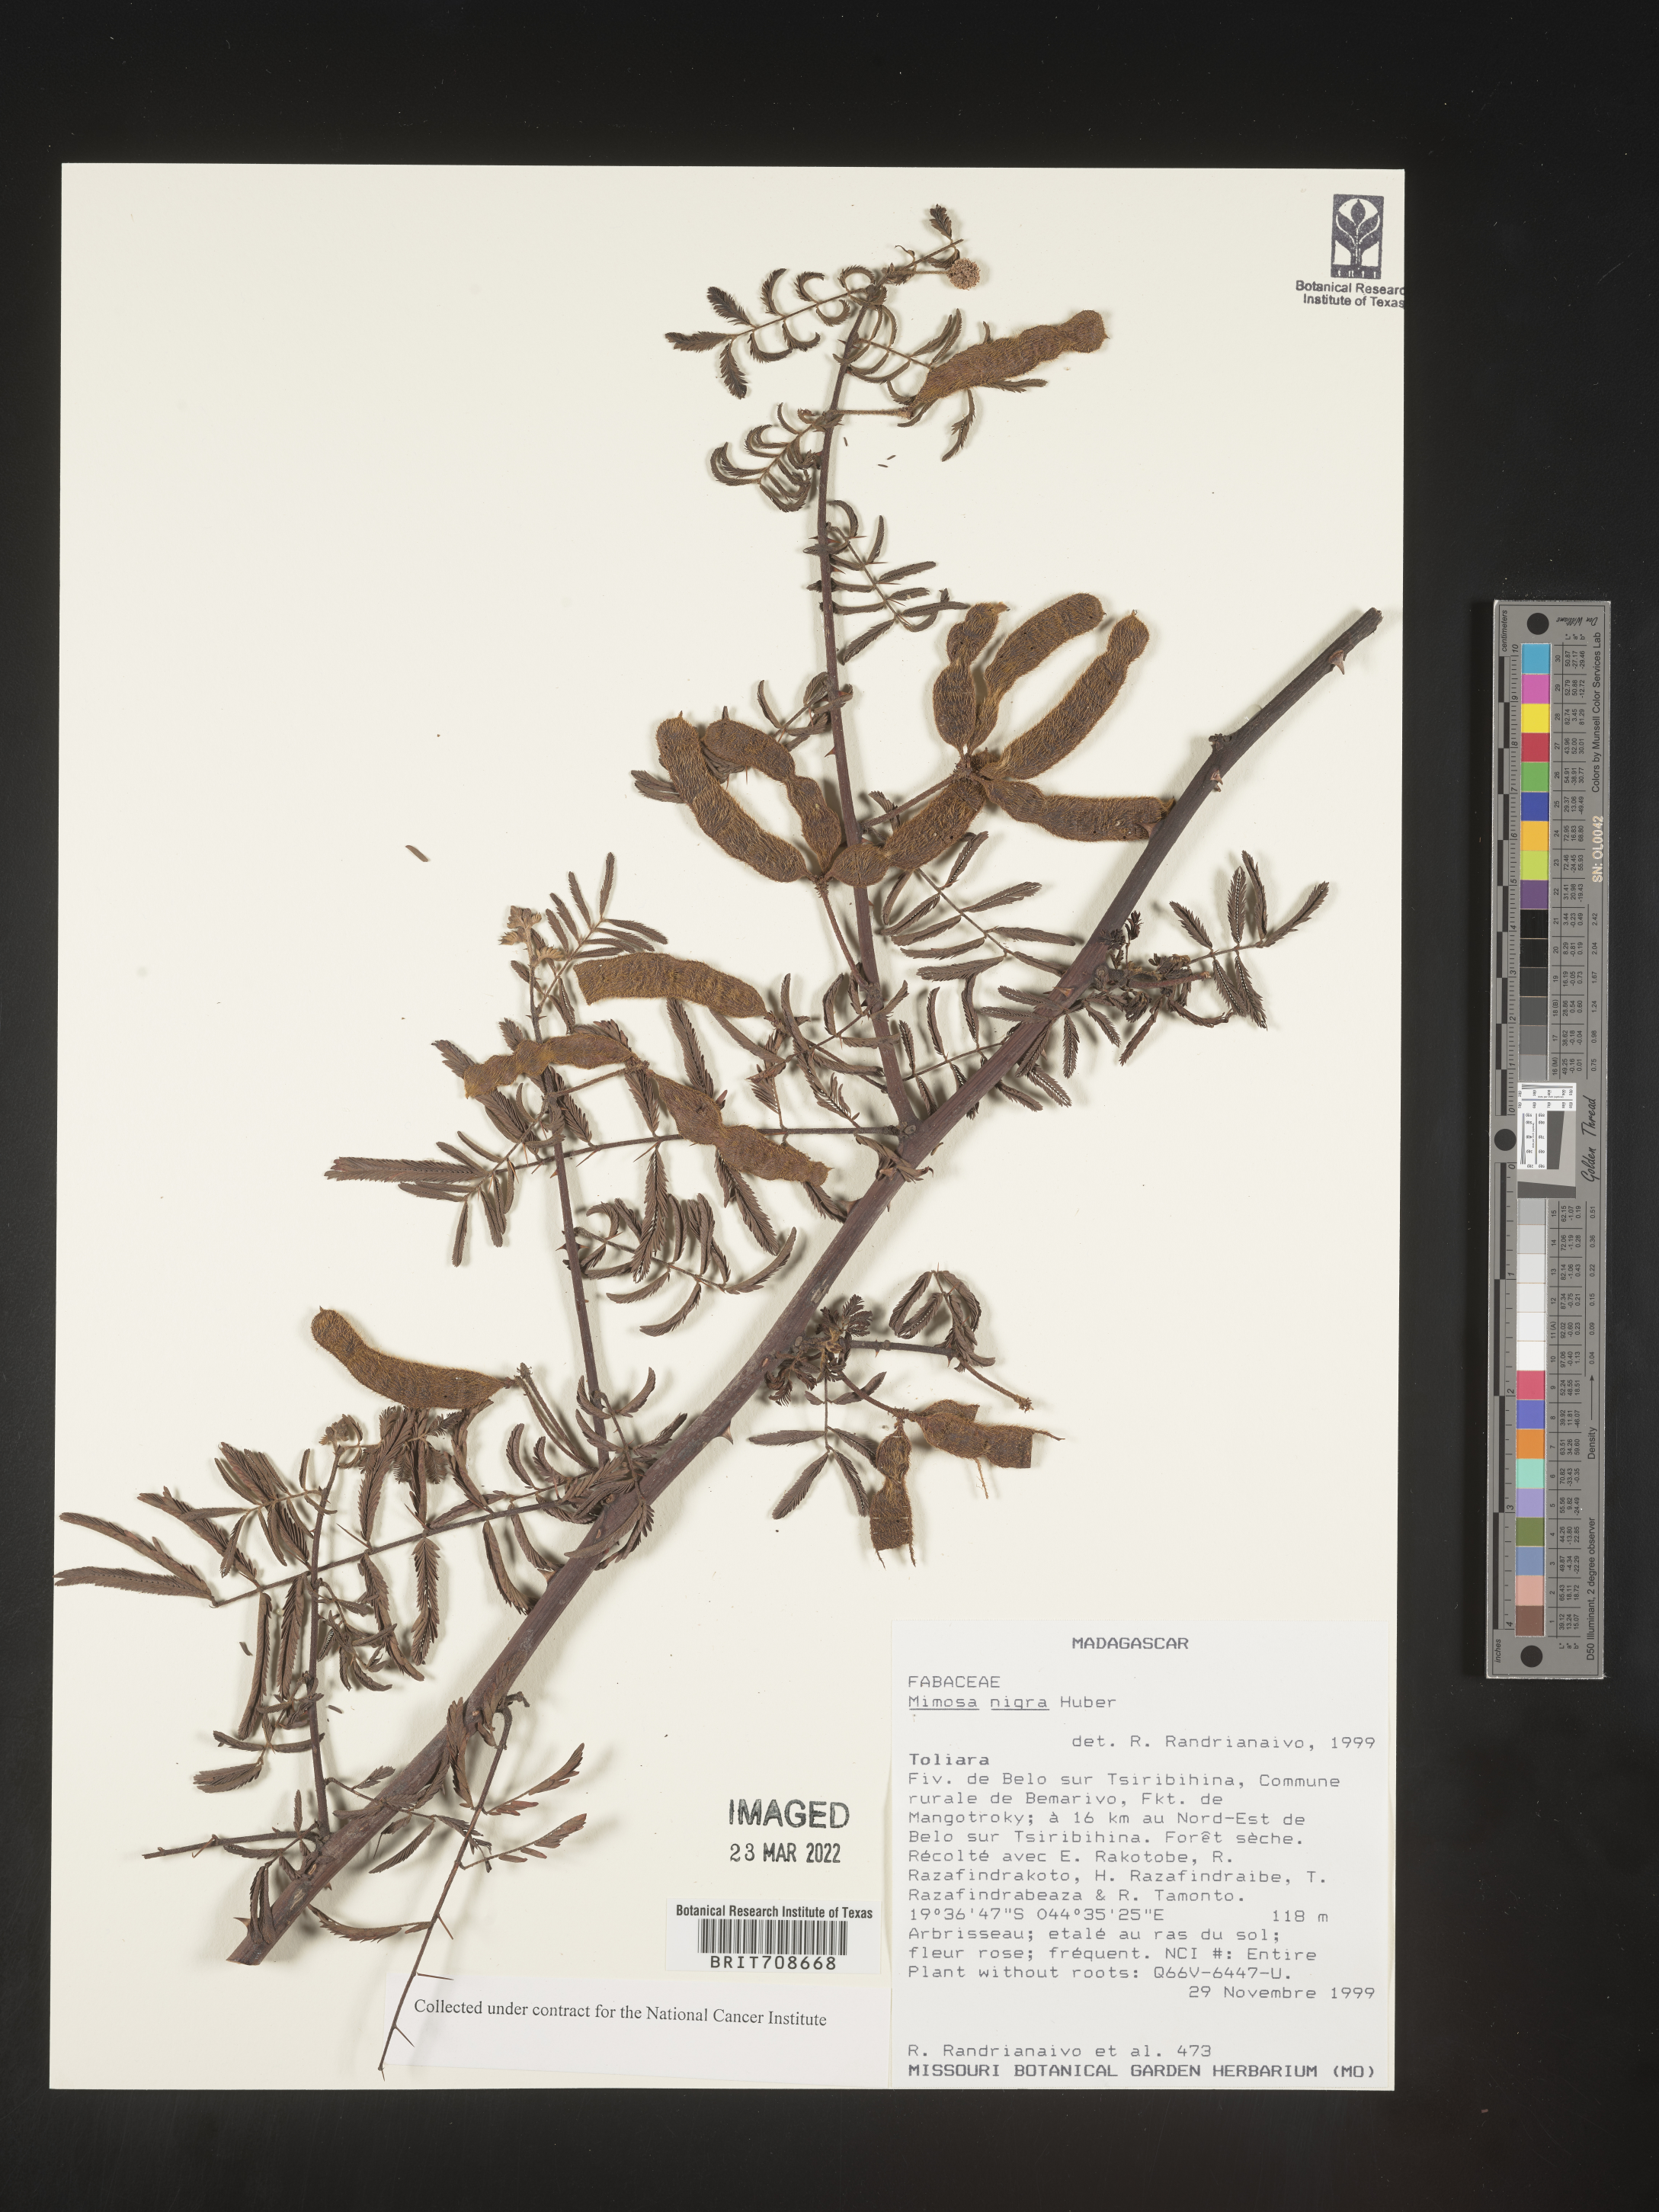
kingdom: Plantae
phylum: Tracheophyta
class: Magnoliopsida
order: Fabales
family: Fabaceae
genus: Mimosa
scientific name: Mimosa
